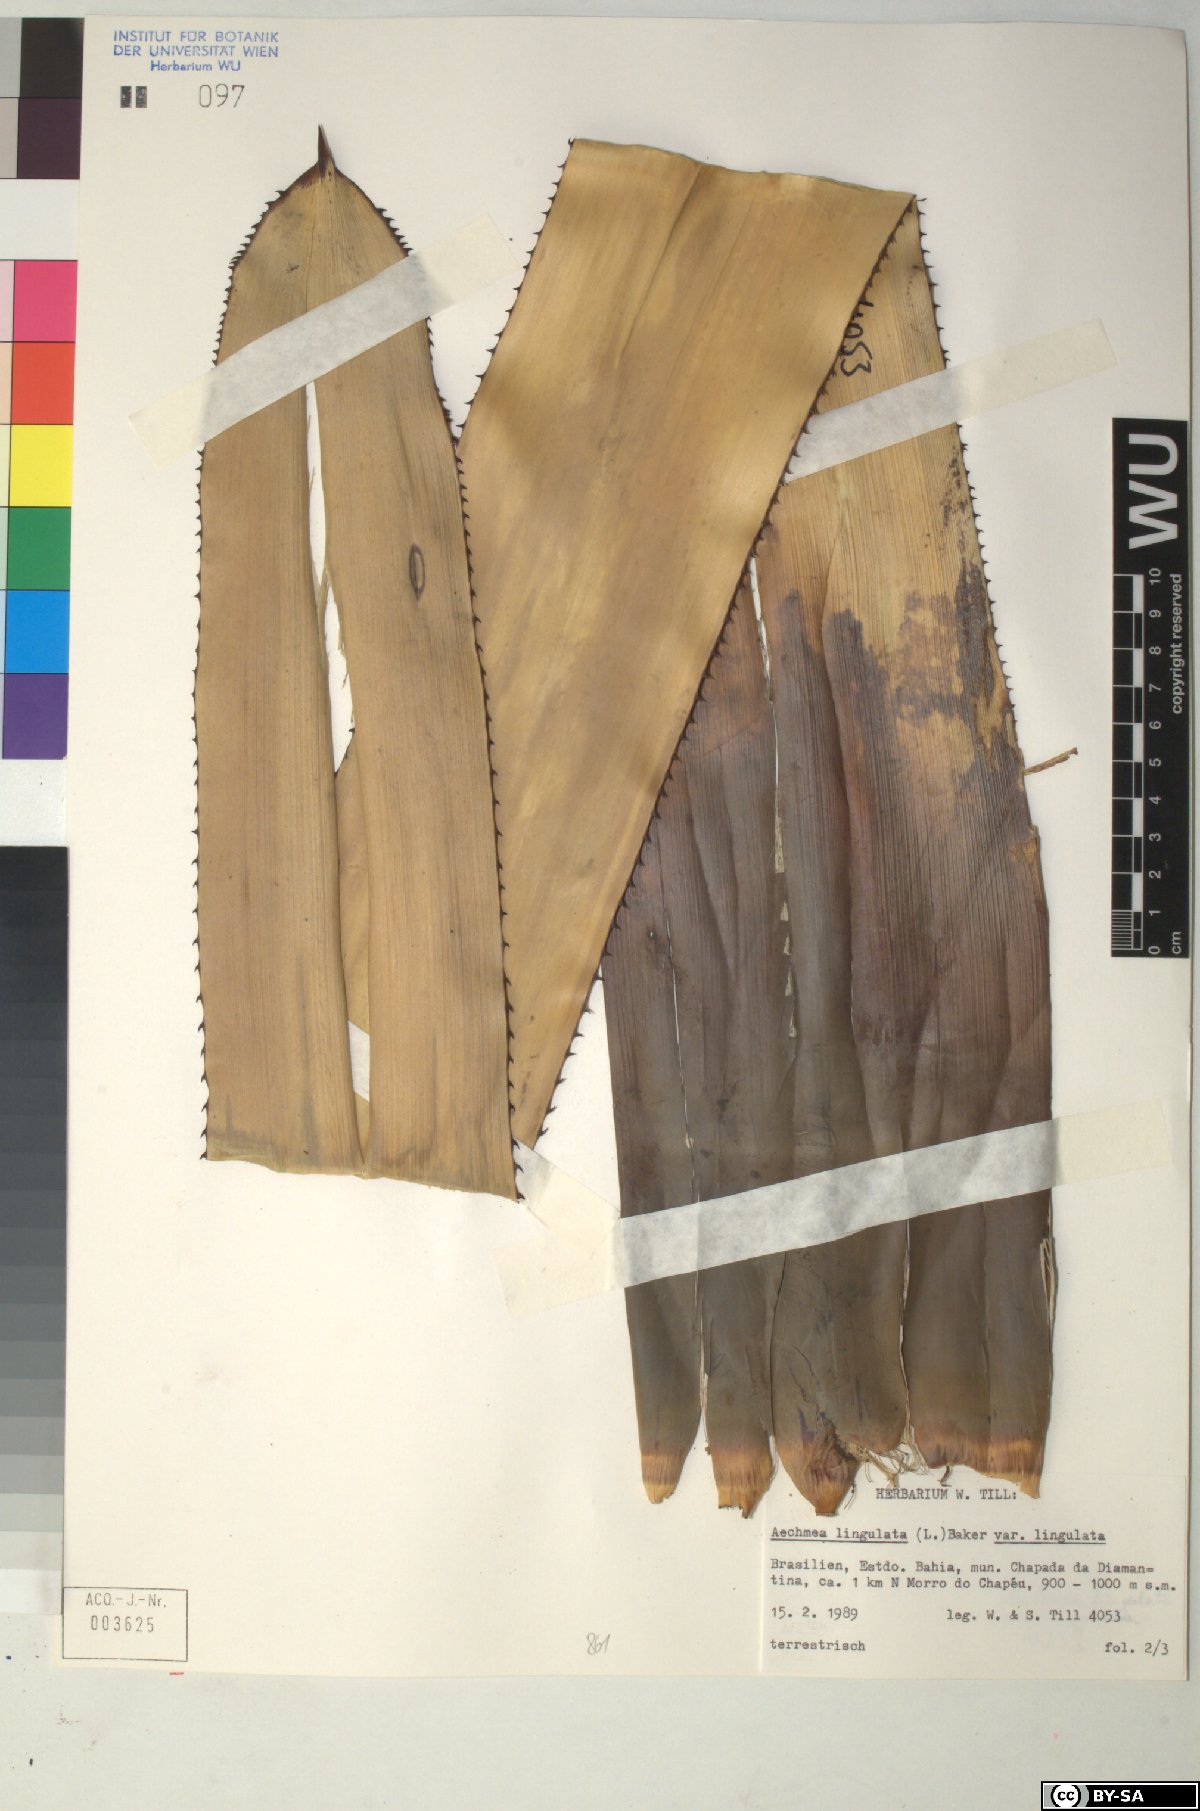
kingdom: Plantae
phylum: Tracheophyta
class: Liliopsida
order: Poales
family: Bromeliaceae
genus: Aechmea
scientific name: Aechmea
